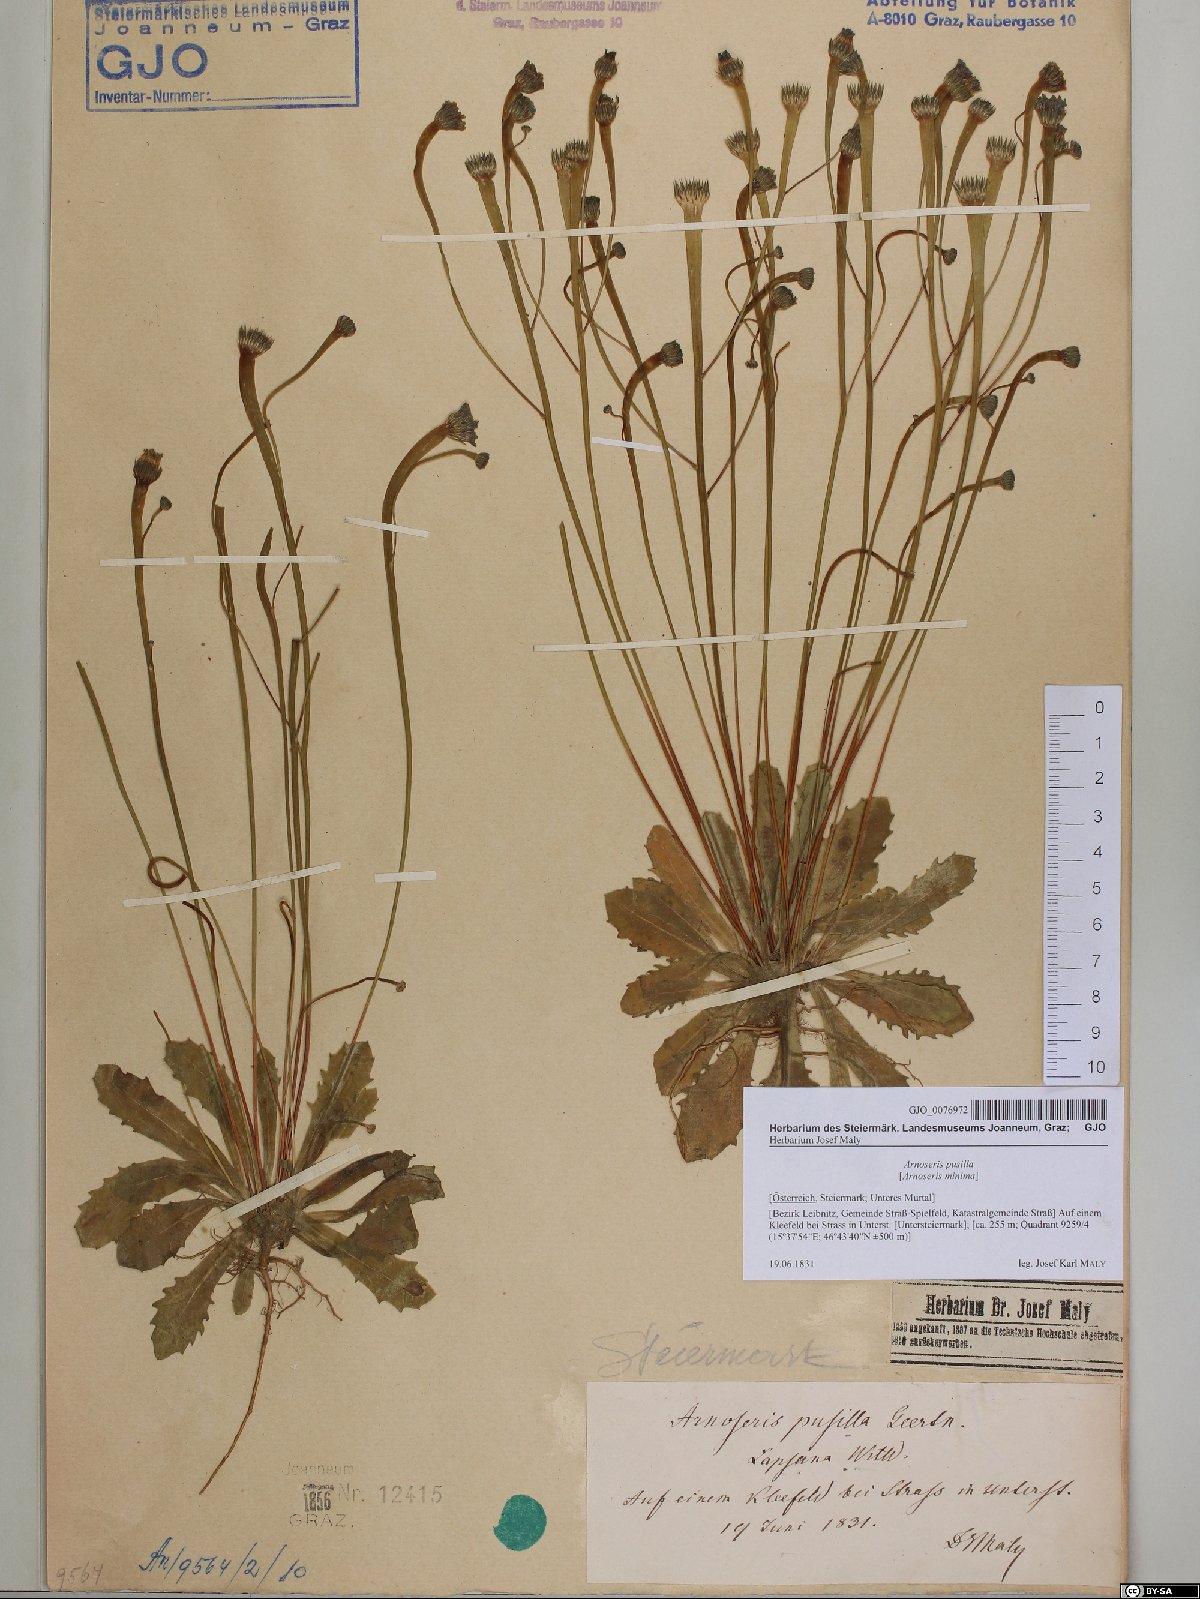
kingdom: Plantae
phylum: Tracheophyta
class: Magnoliopsida
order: Asterales
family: Asteraceae
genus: Arnoseris
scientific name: Arnoseris minima
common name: Lamb's succory
